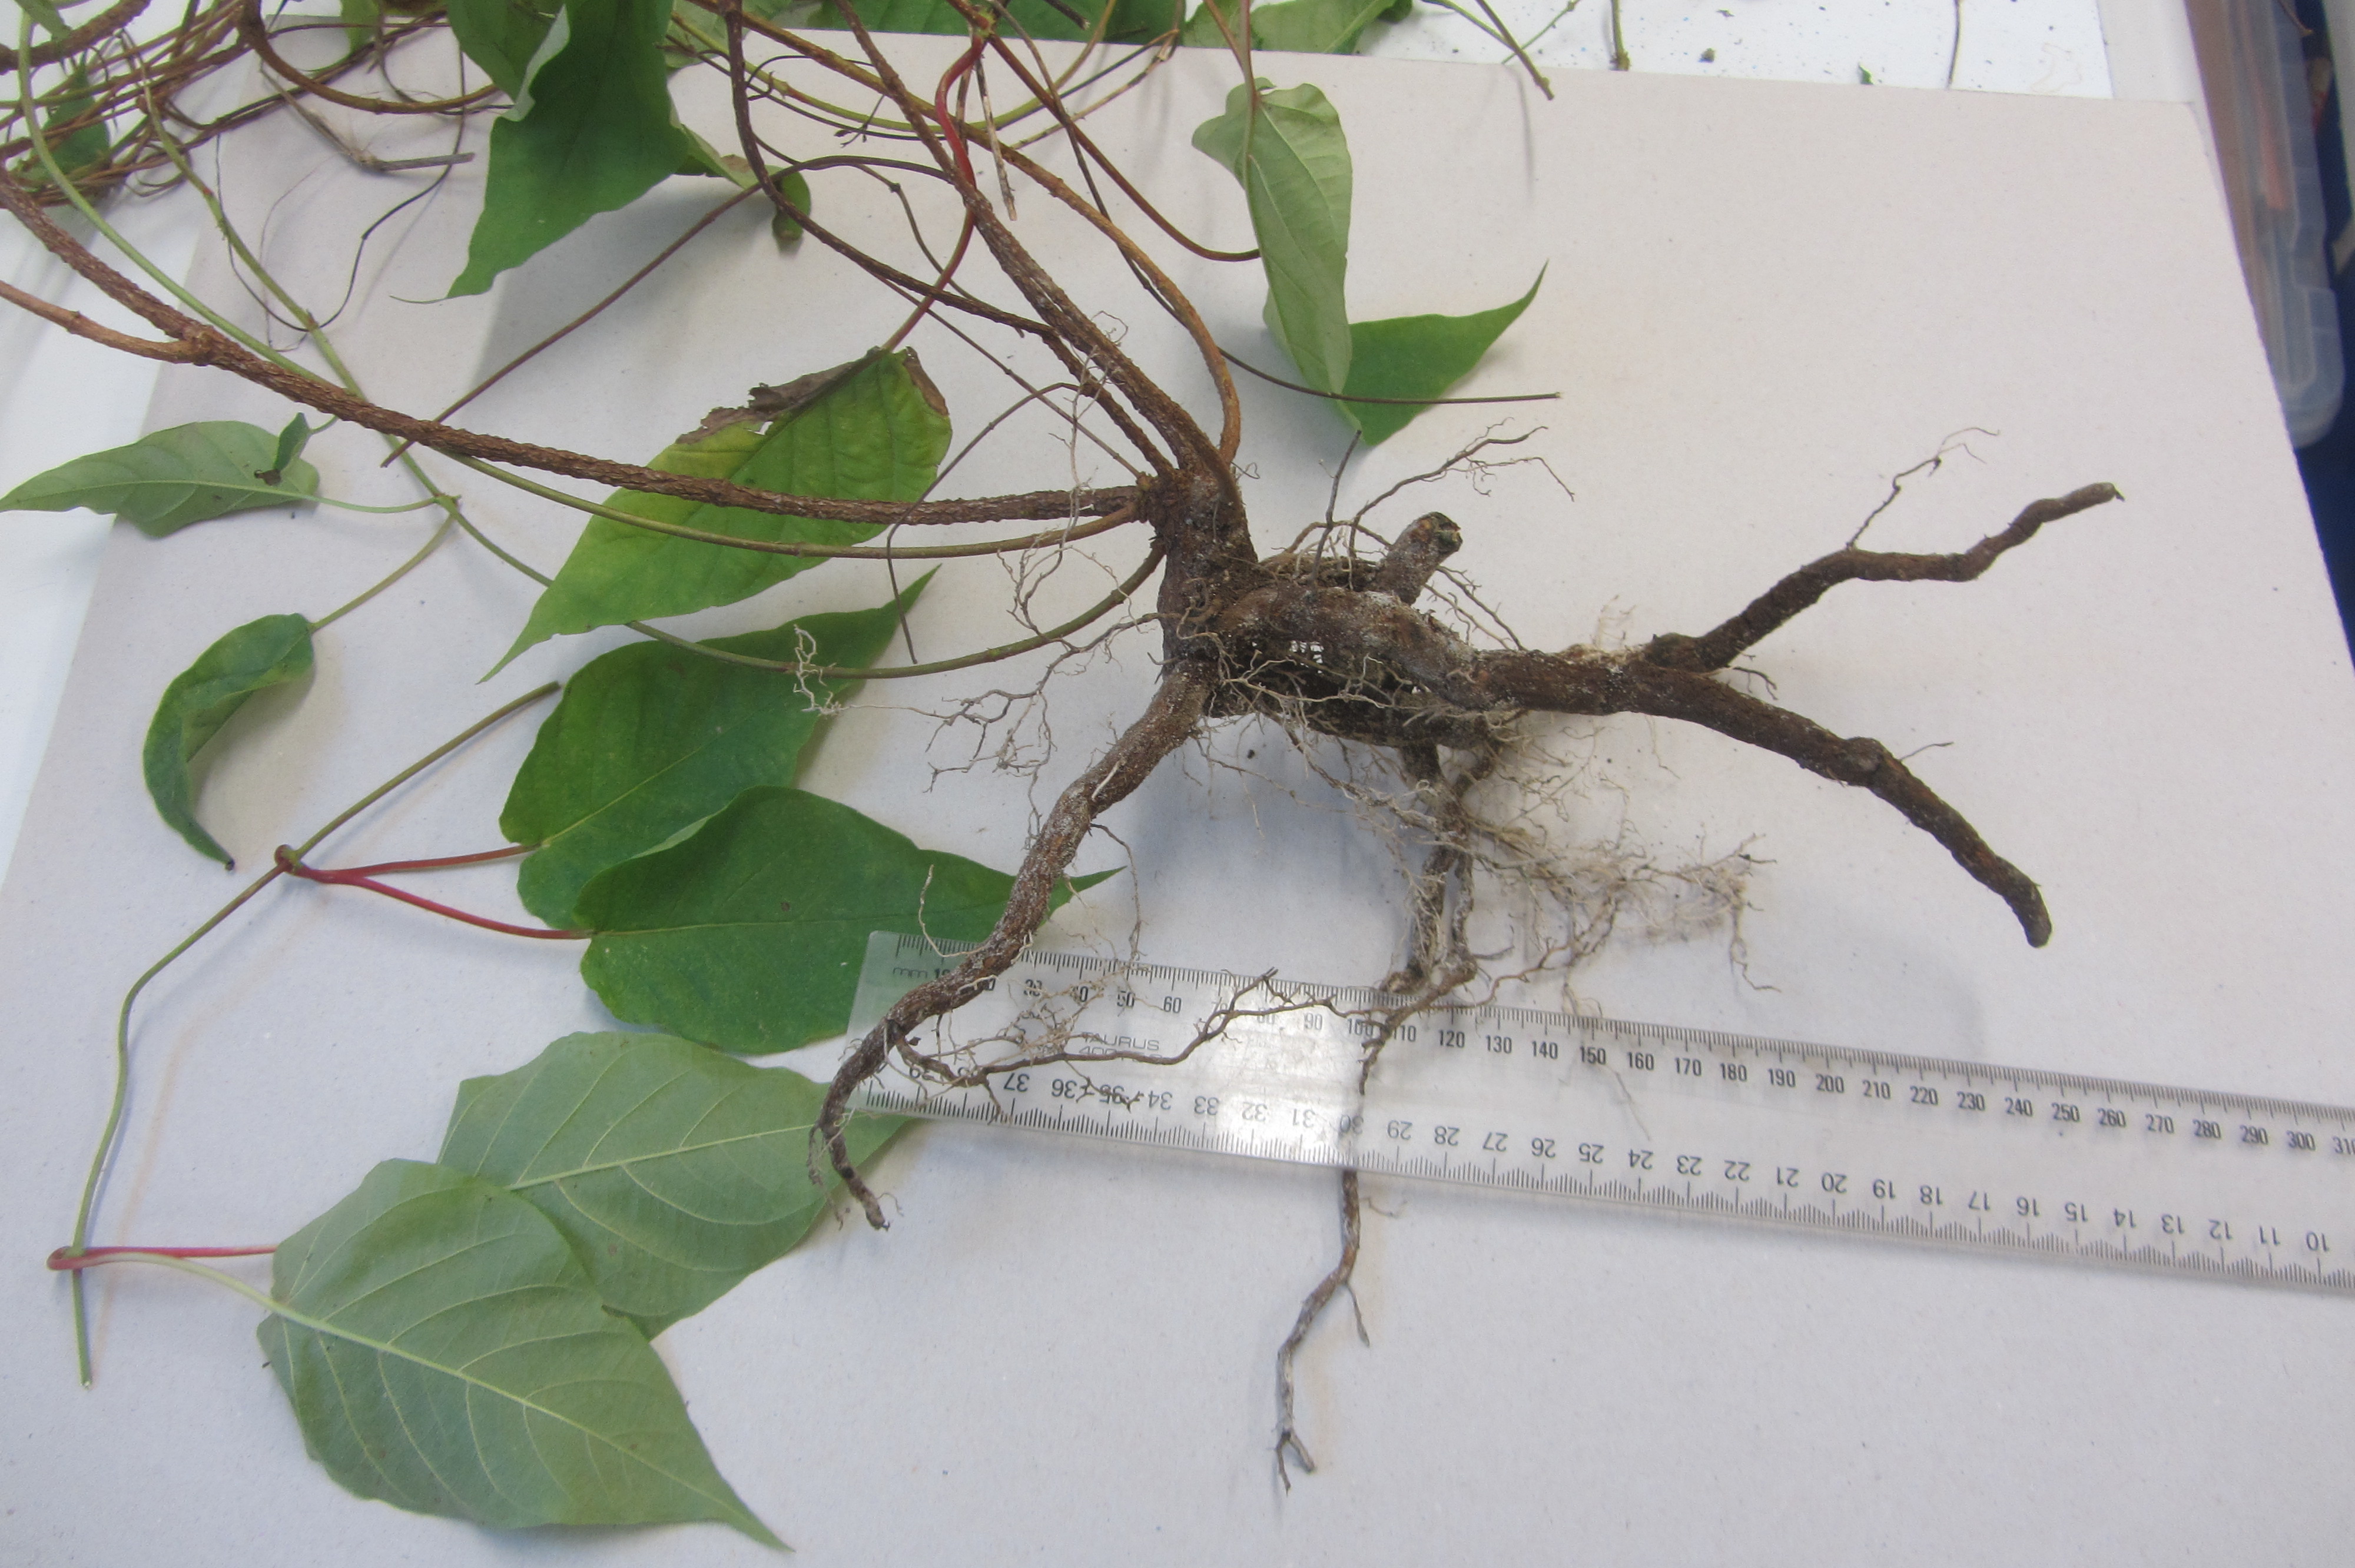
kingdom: Plantae
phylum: Tracheophyta
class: Magnoliopsida
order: Gentianales
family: Apocynaceae
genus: Mandevilla
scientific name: Mandevilla laxa
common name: Chilean-jasmine
